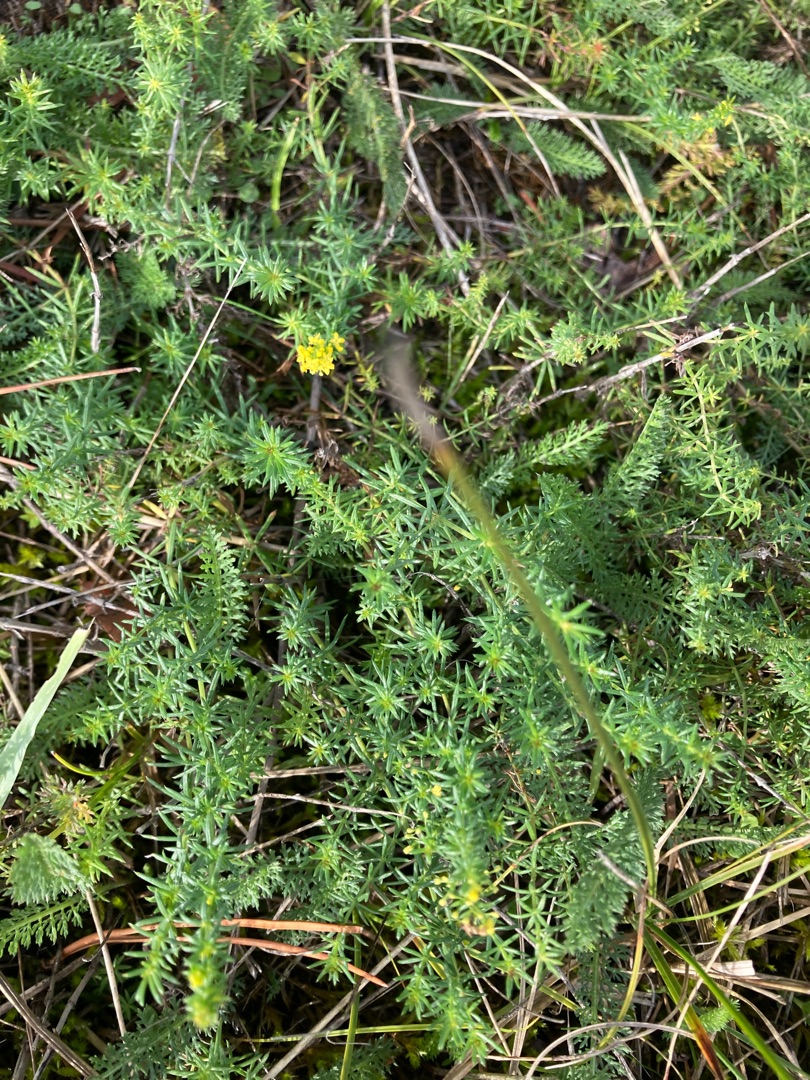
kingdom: Plantae
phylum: Tracheophyta
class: Magnoliopsida
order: Gentianales
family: Rubiaceae
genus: Galium
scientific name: Galium verum
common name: Gul snerre
